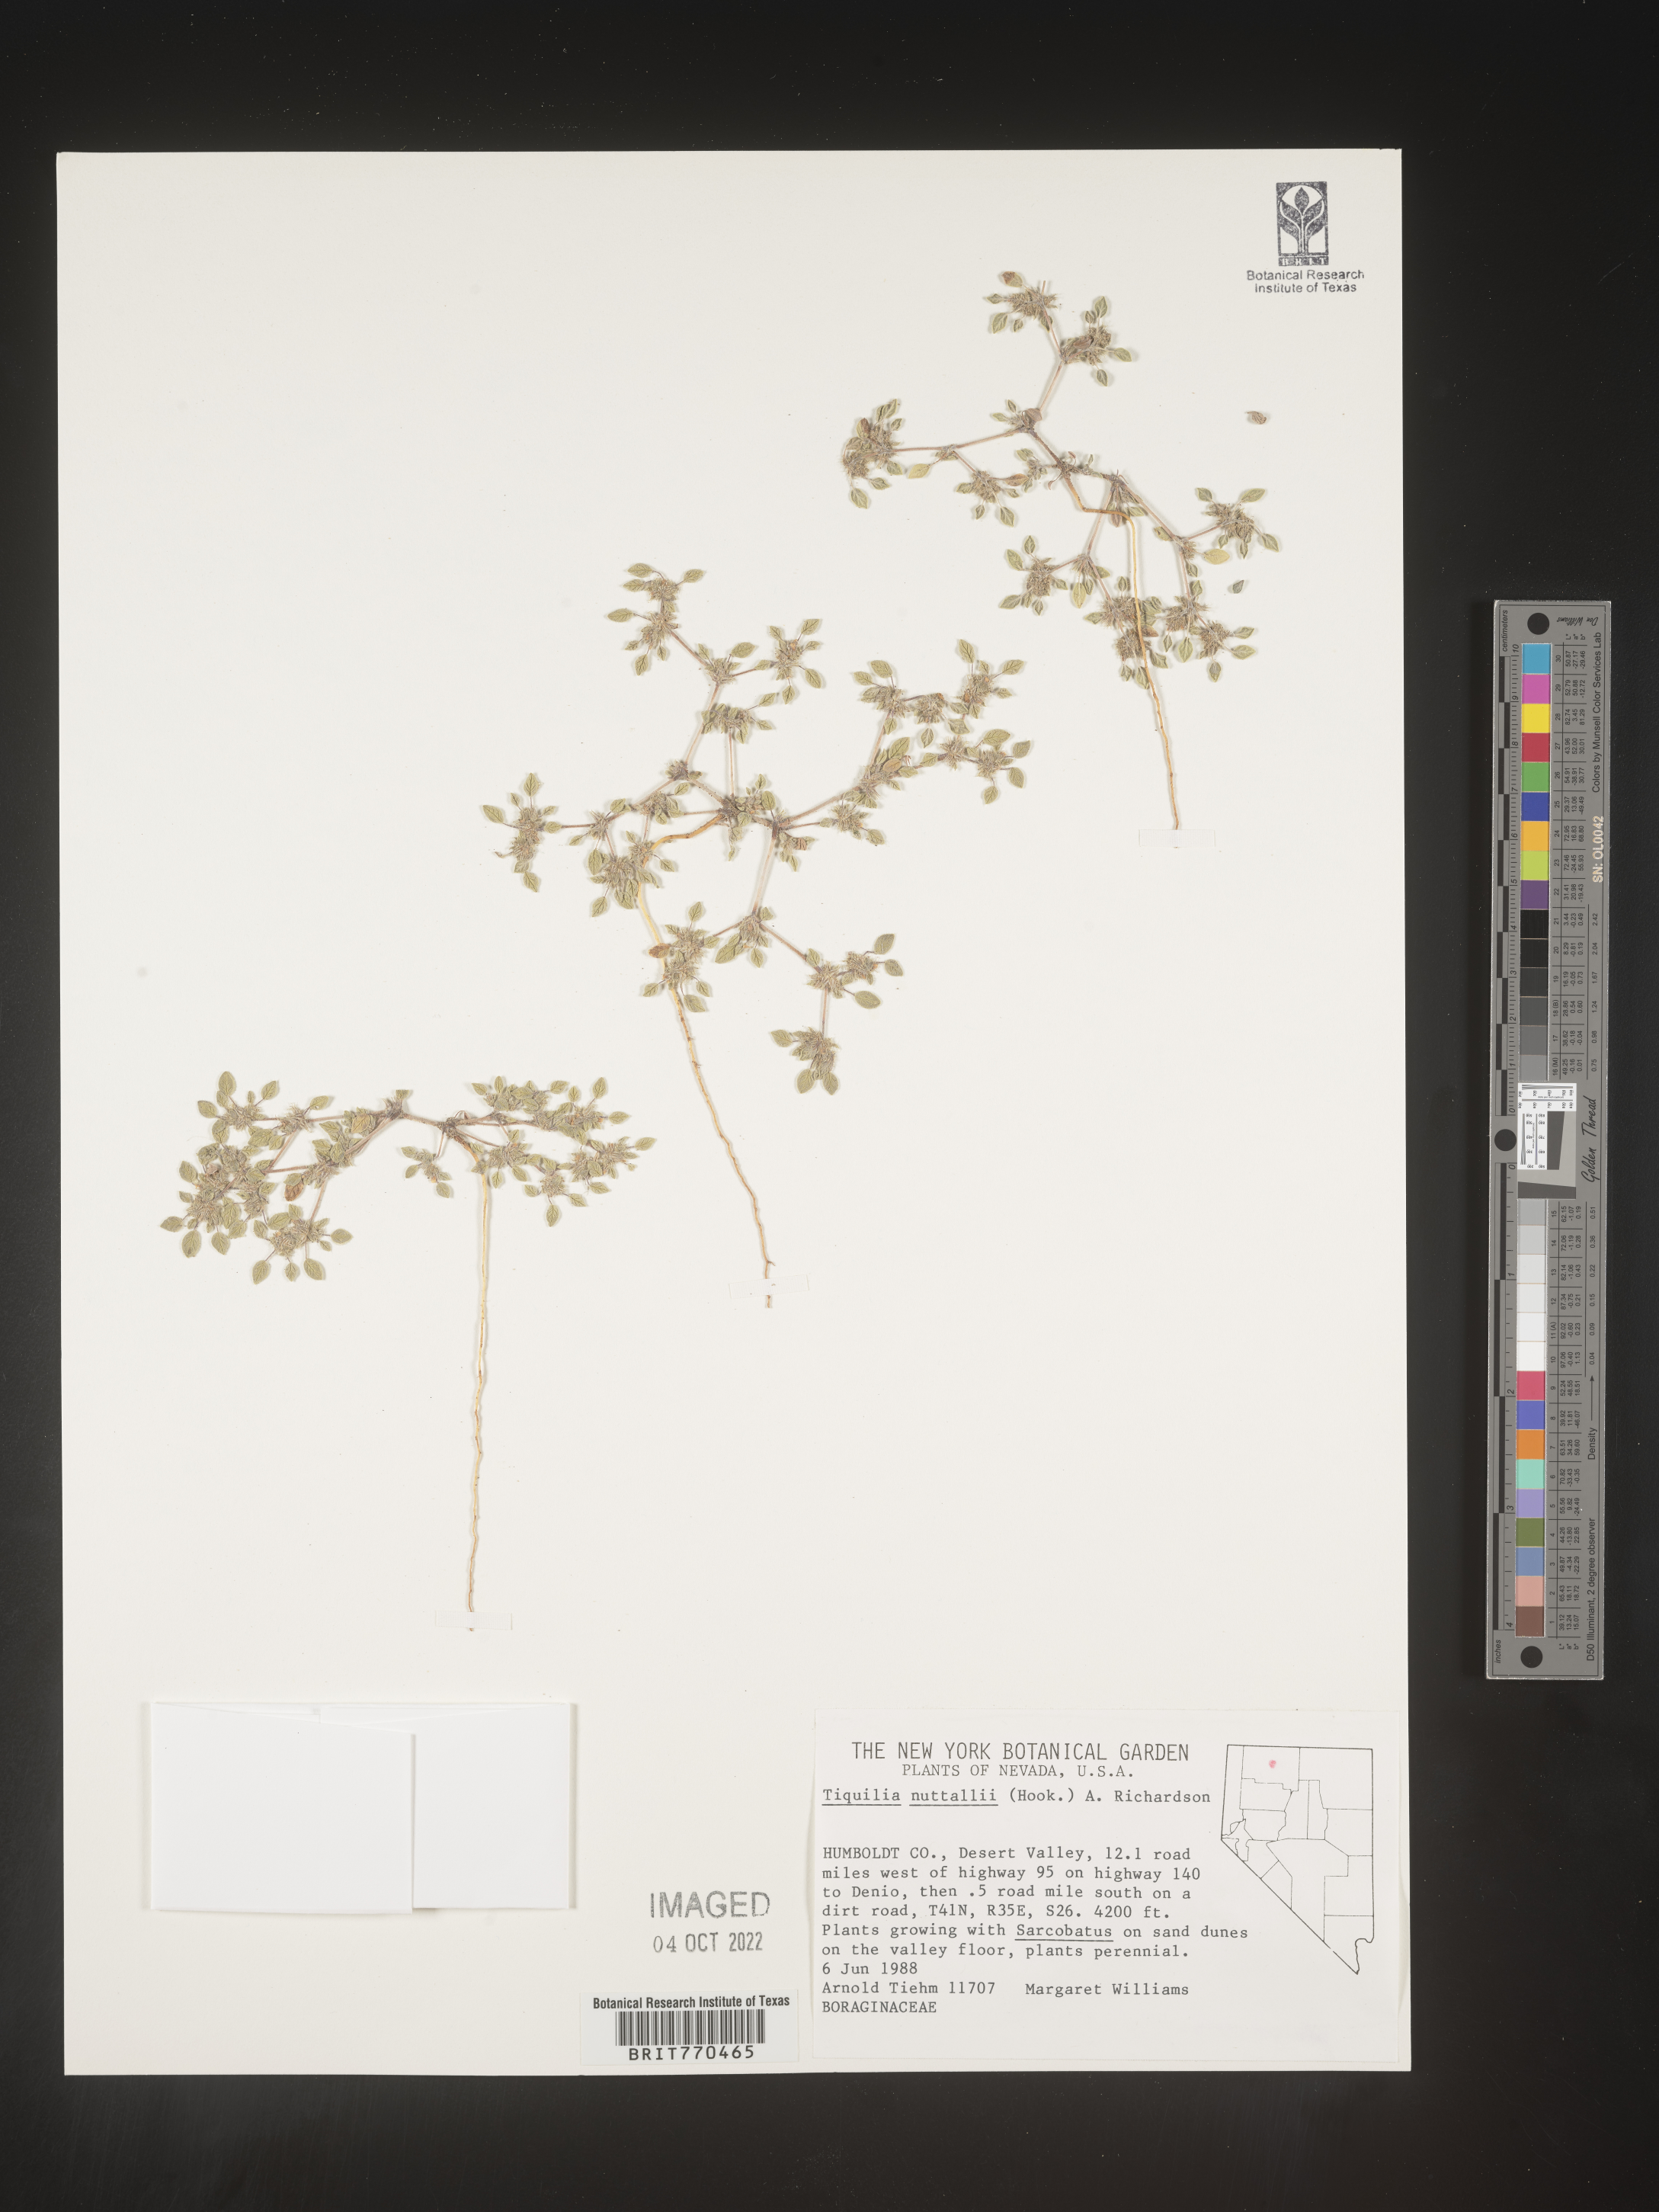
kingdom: Plantae
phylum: Tracheophyta
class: Magnoliopsida
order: Boraginales
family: Ehretiaceae
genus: Tiquilia
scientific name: Tiquilia
